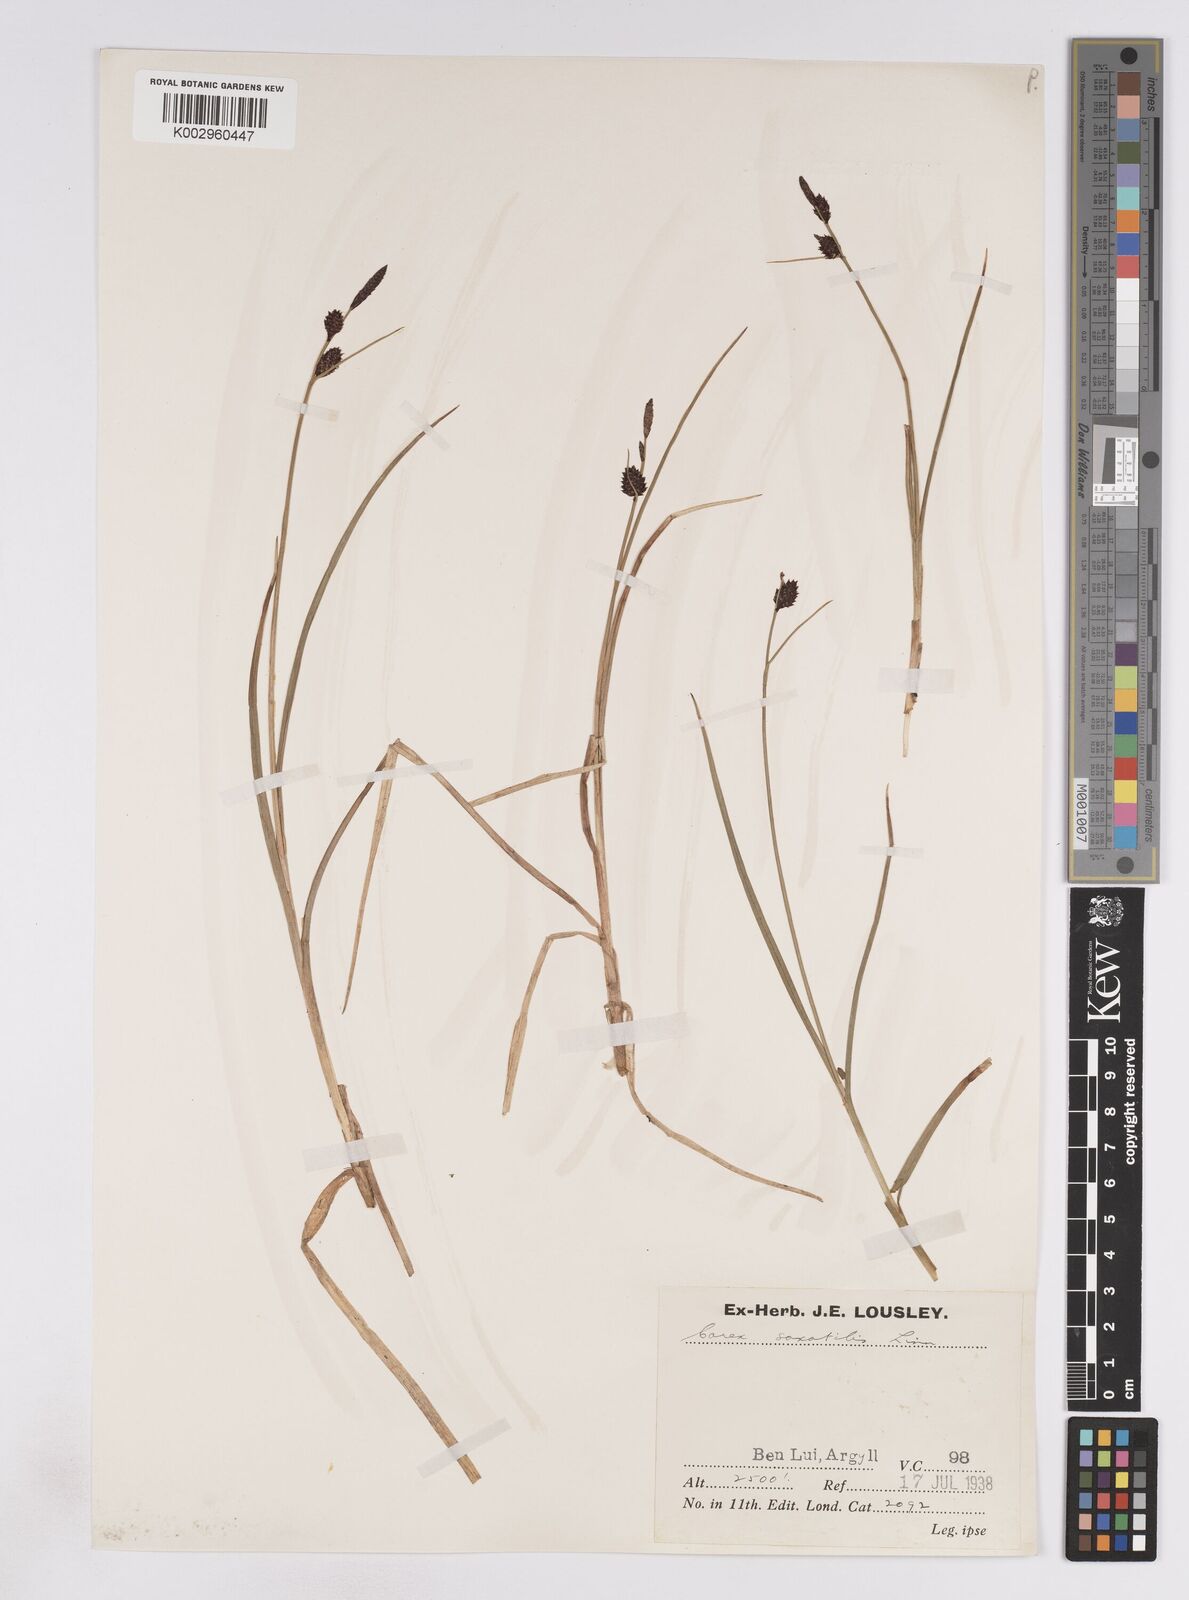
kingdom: Plantae
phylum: Tracheophyta
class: Liliopsida
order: Poales
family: Cyperaceae
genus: Carex
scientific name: Carex saxatilis
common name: Russet sedge
